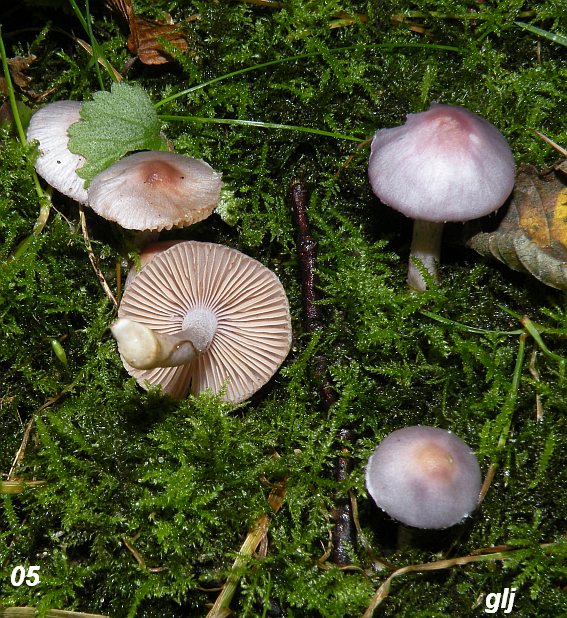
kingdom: Fungi
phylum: Basidiomycota
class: Agaricomycetes
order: Agaricales
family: Inocybaceae
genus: Inocybe
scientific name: Inocybe geophylla
